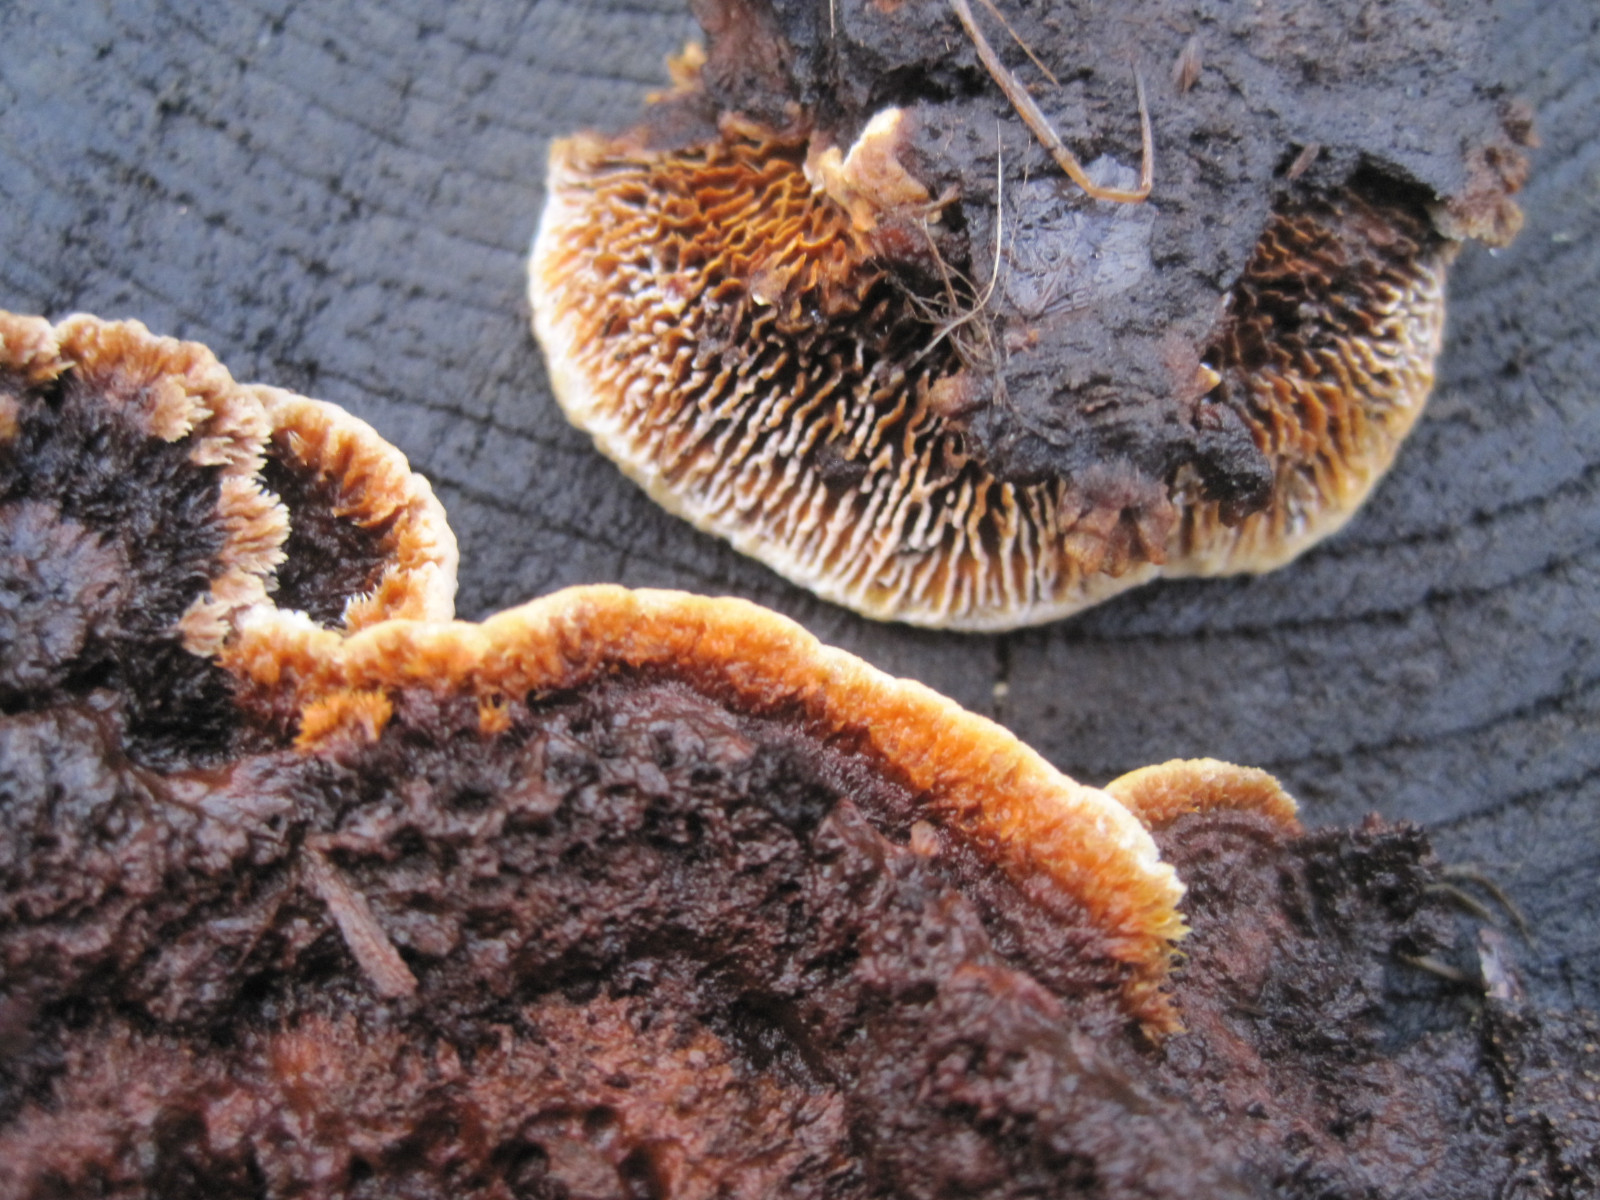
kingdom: Fungi
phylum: Basidiomycota
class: Agaricomycetes
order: Gloeophyllales
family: Gloeophyllaceae
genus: Gloeophyllum
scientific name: Gloeophyllum sepiarium
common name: fyrre-korkhat
